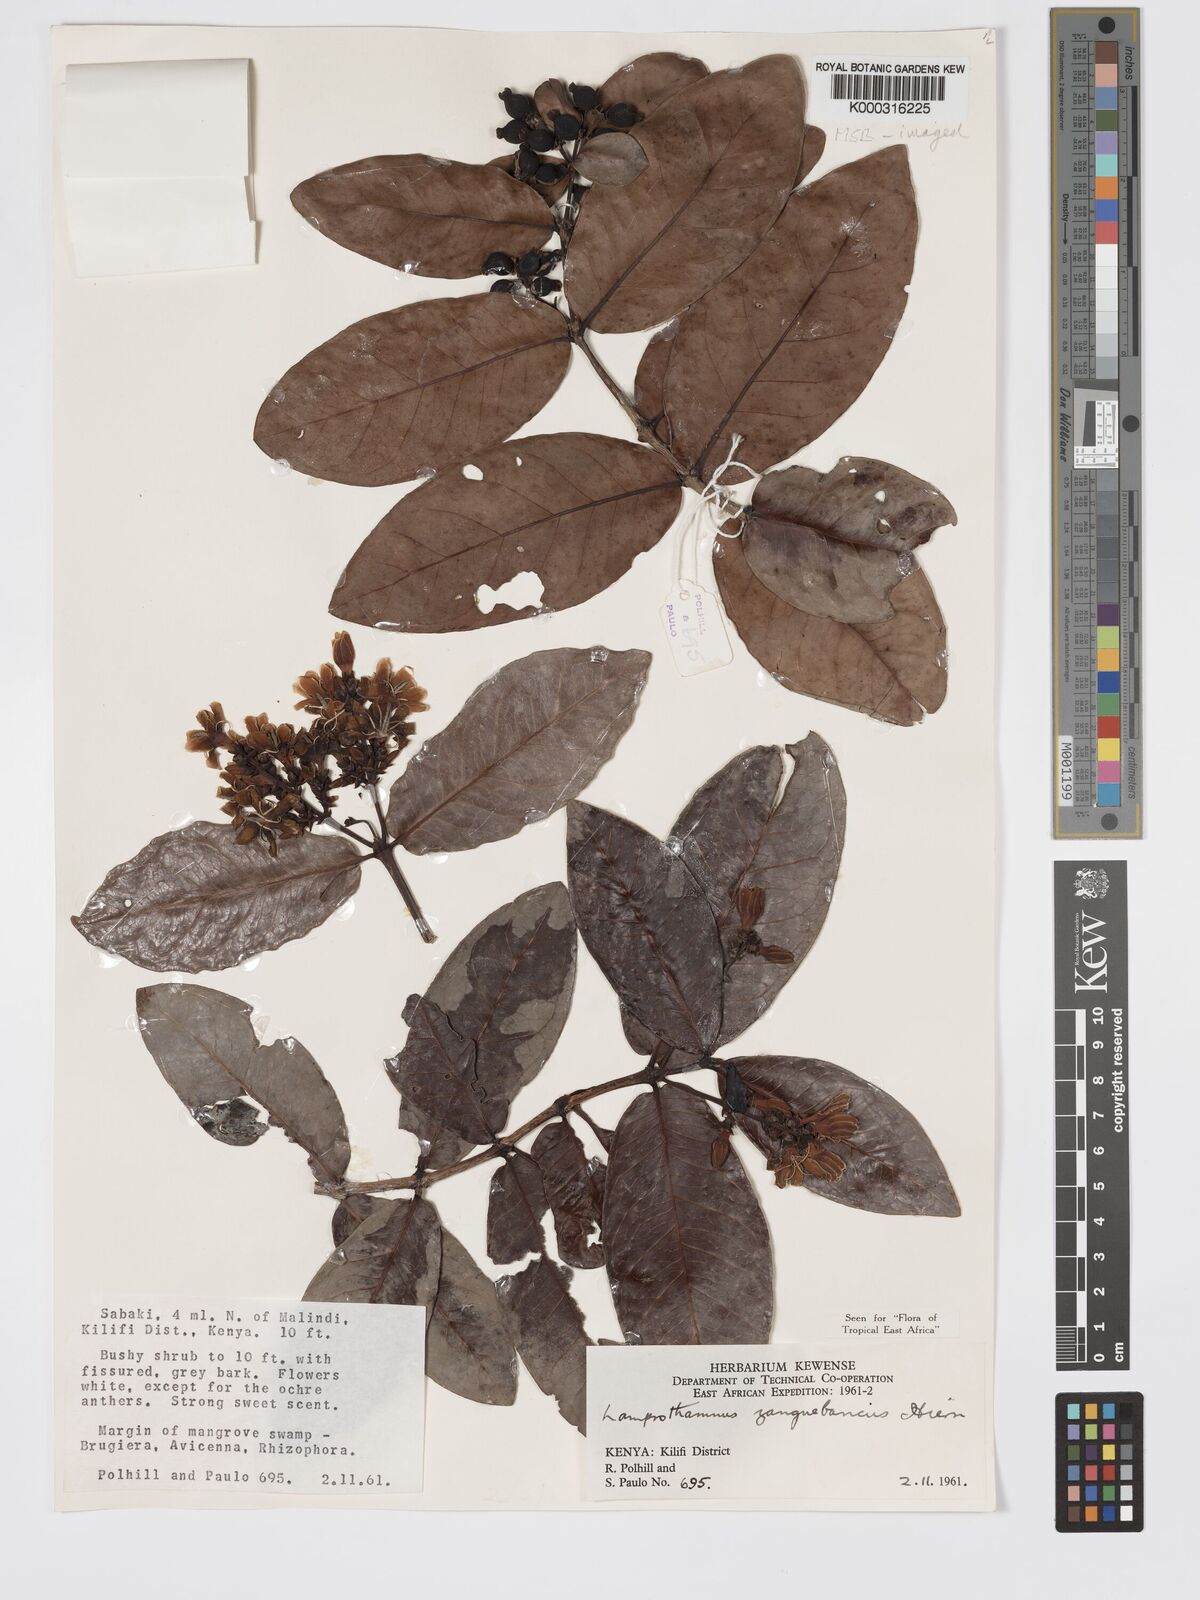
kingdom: Plantae
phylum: Tracheophyta
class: Magnoliopsida
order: Gentianales
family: Rubiaceae
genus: Lamprothamnus
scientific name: Lamprothamnus zanguebaricus
